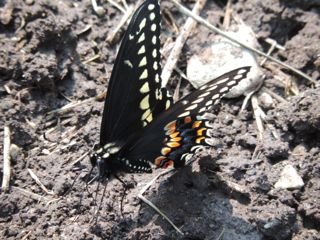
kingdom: Animalia
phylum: Arthropoda
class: Insecta
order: Lepidoptera
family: Papilionidae
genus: Papilio
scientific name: Papilio polyxenes
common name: Black Swallowtail
